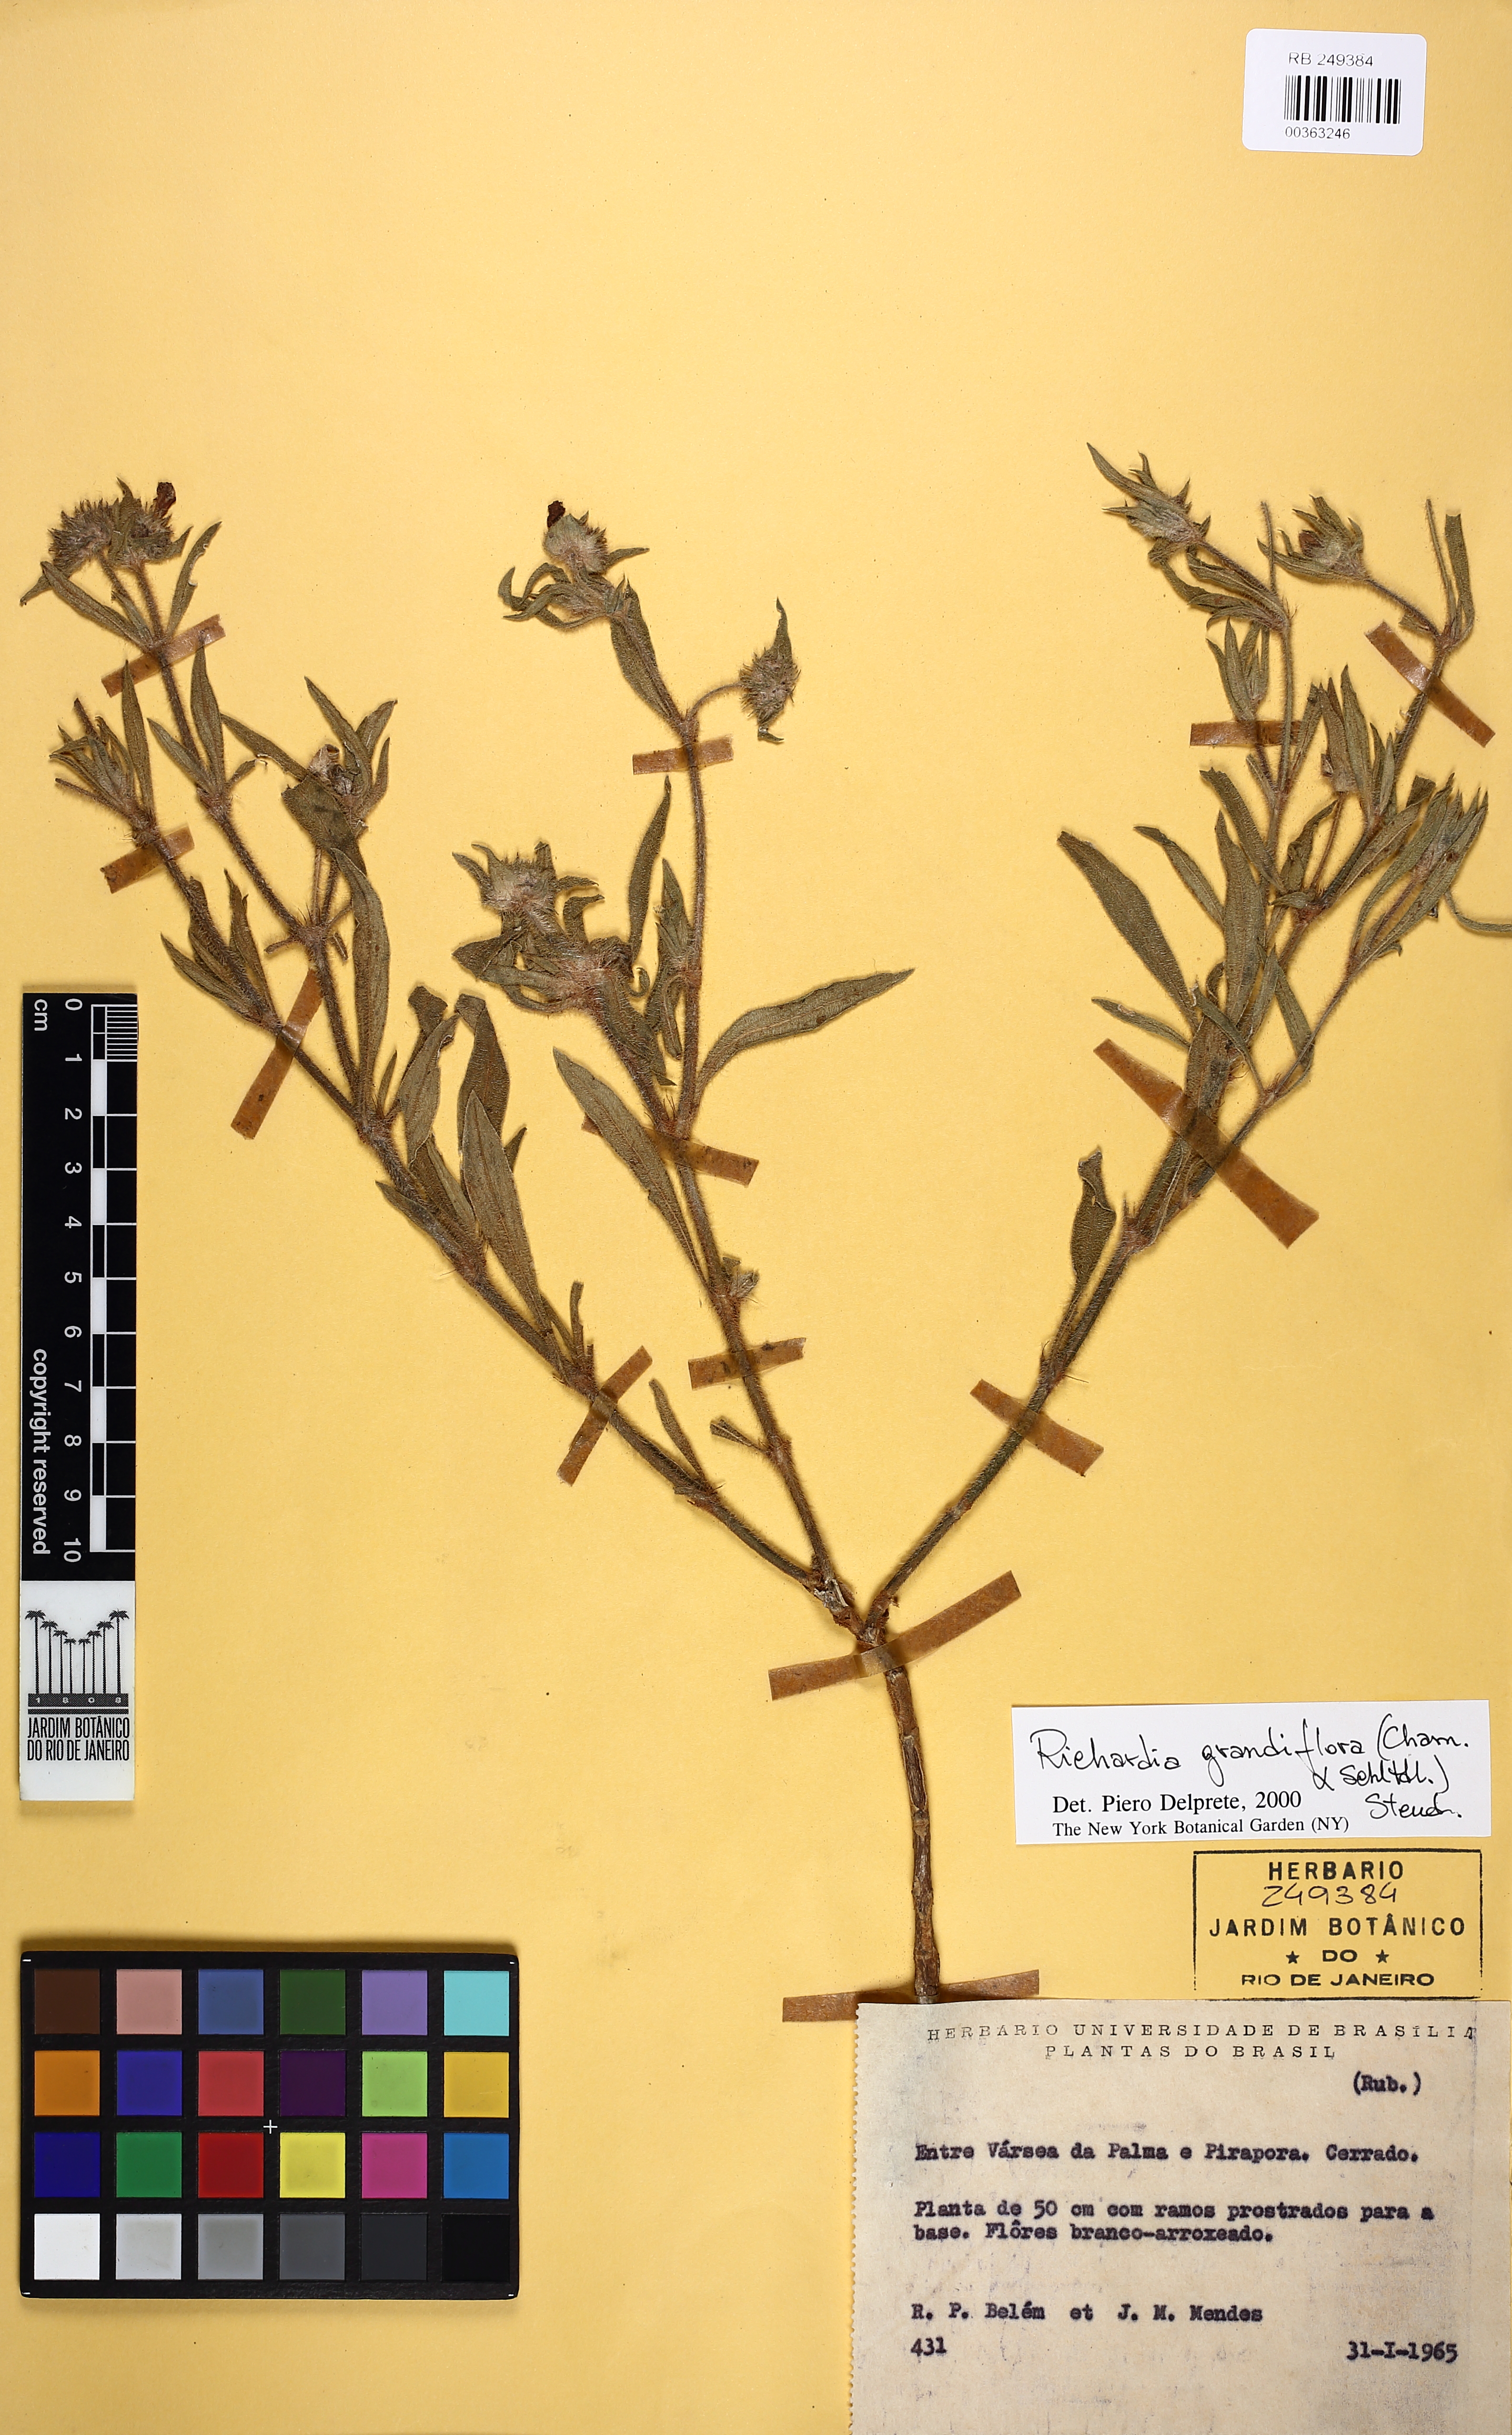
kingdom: Plantae
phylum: Tracheophyta
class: Magnoliopsida
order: Gentianales
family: Rubiaceae
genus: Richardia
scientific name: Richardia grandiflora
